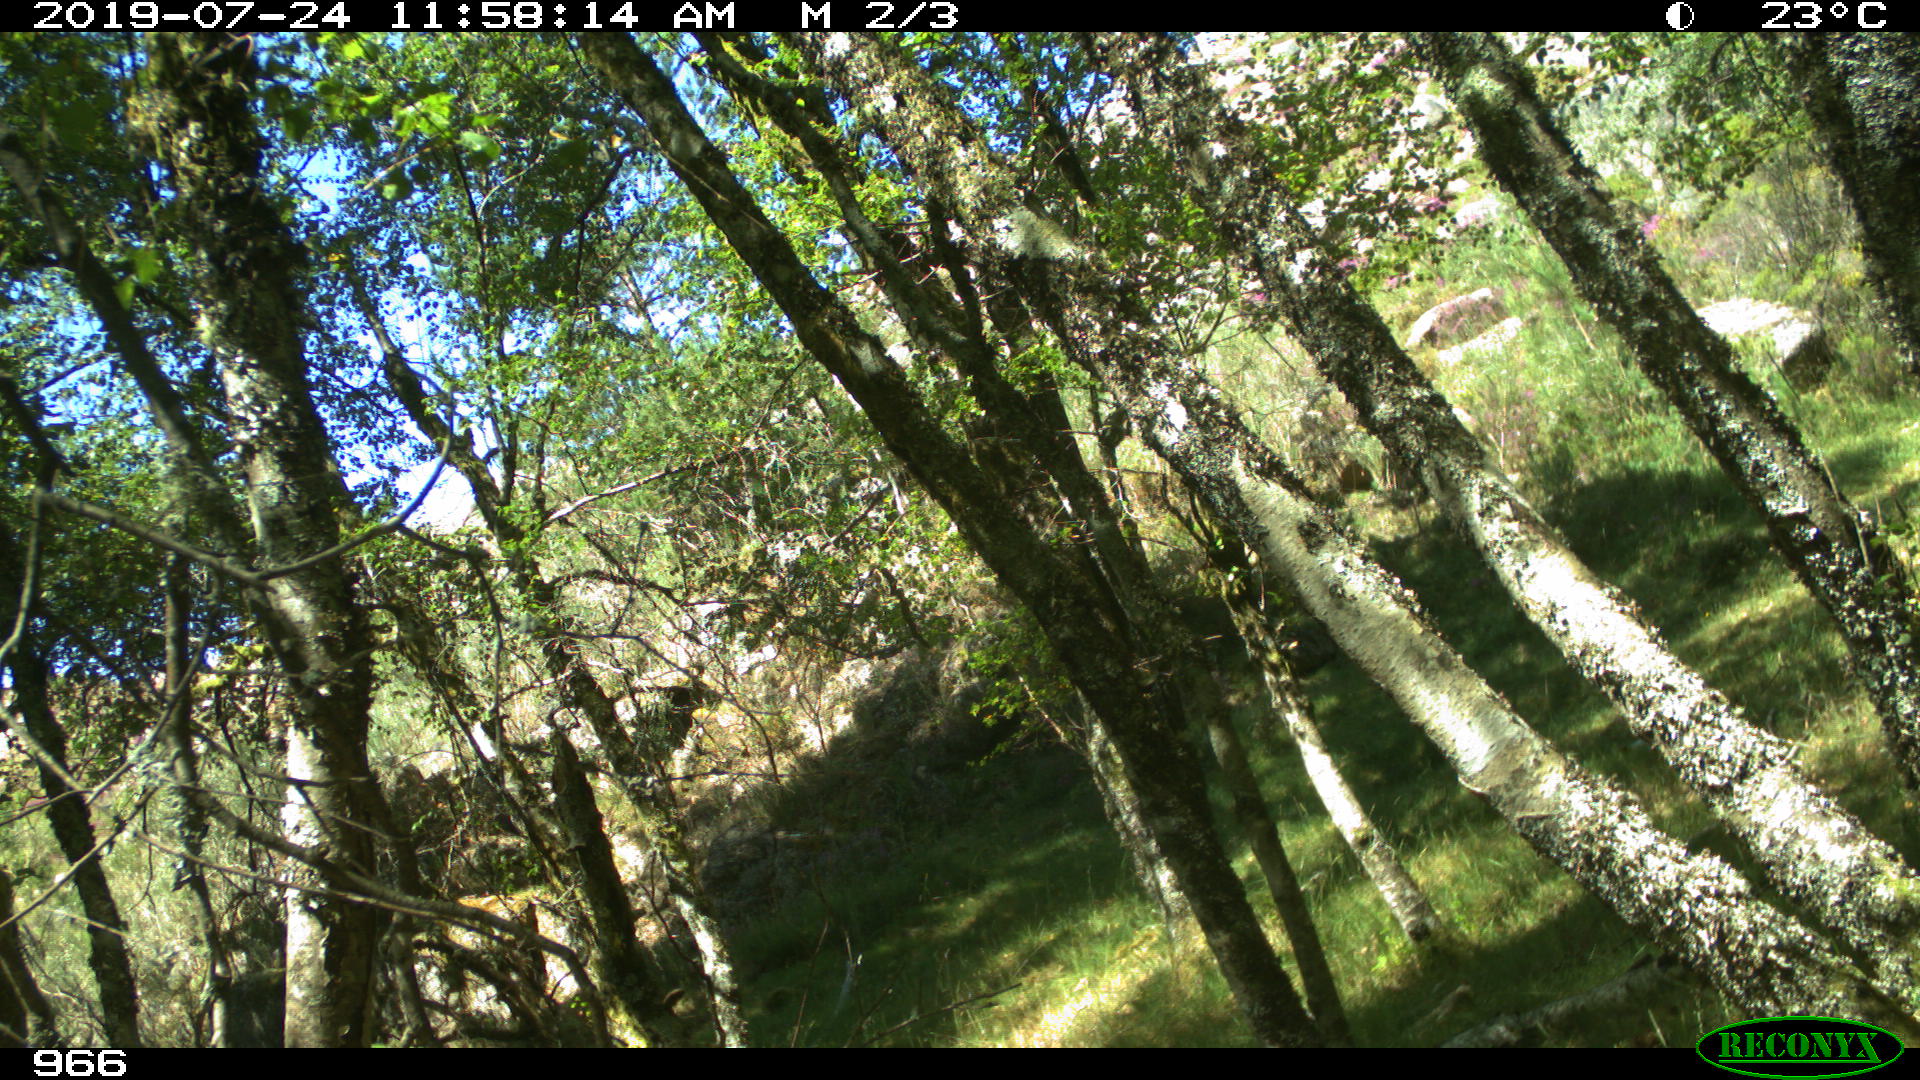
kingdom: Animalia
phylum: Chordata
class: Mammalia
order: Perissodactyla
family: Equidae
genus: Equus
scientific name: Equus caballus
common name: Horse
